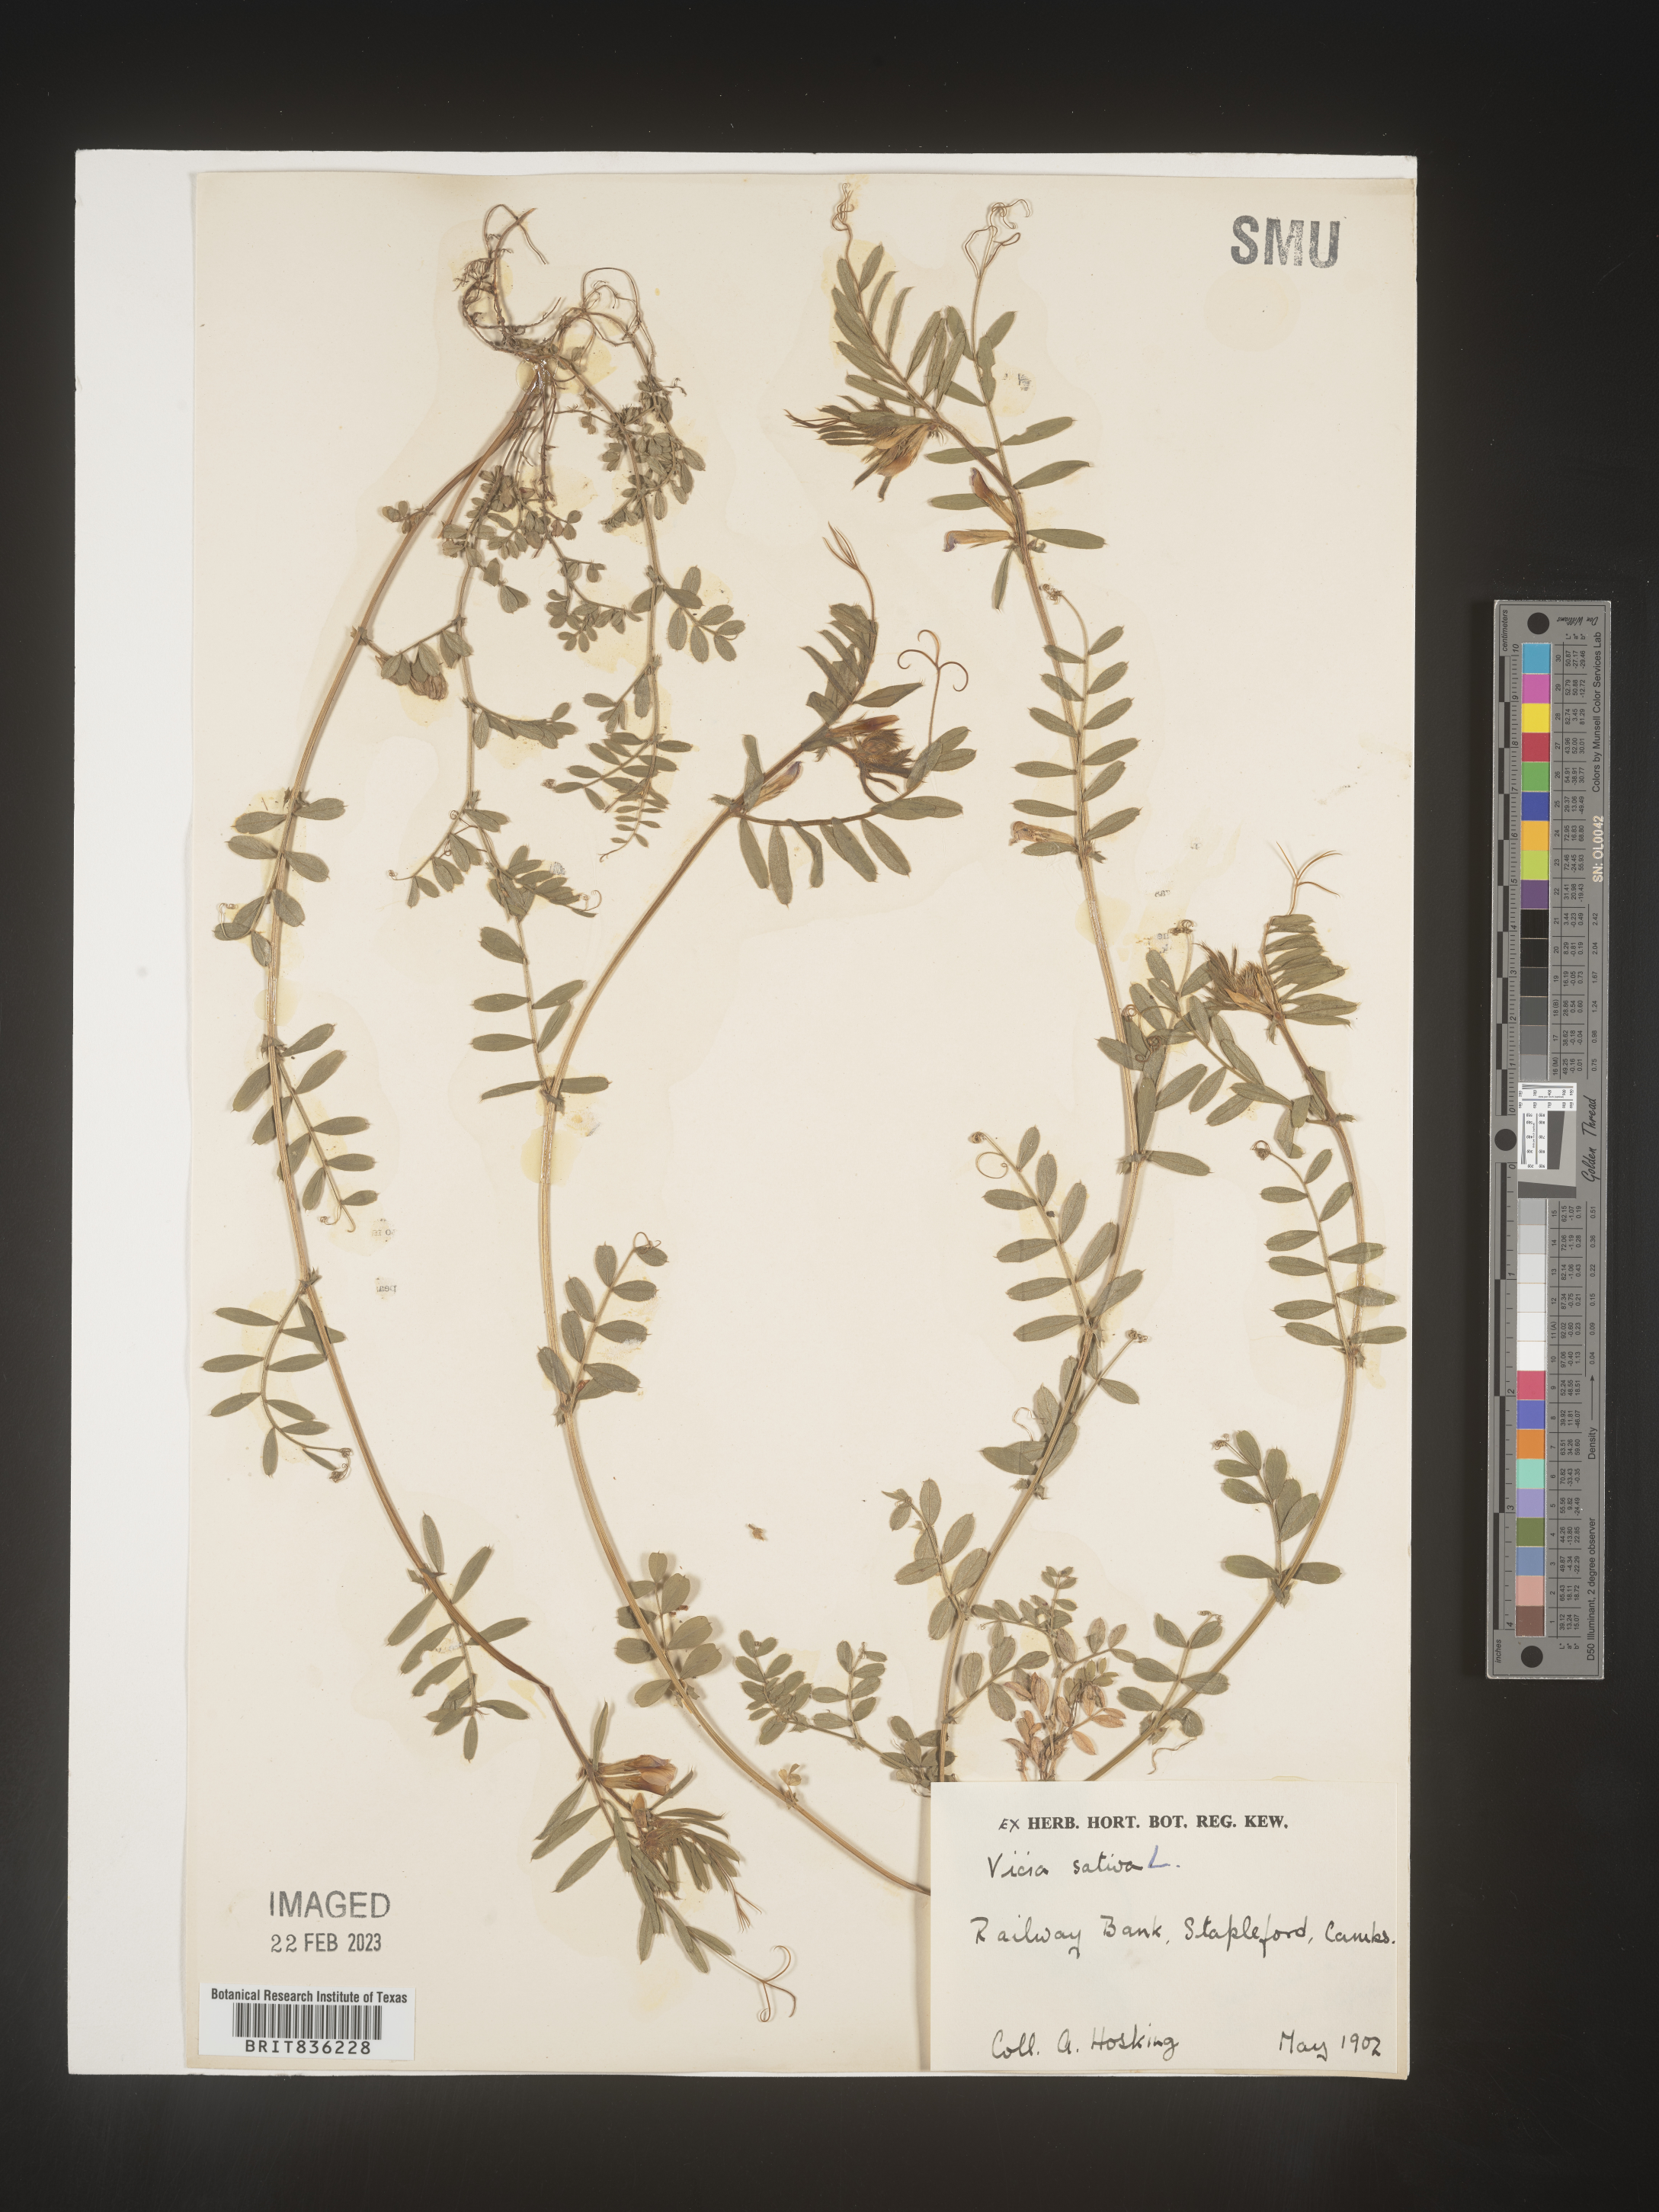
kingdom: Plantae
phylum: Tracheophyta
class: Magnoliopsida
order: Fabales
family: Fabaceae
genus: Vicia
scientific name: Vicia
